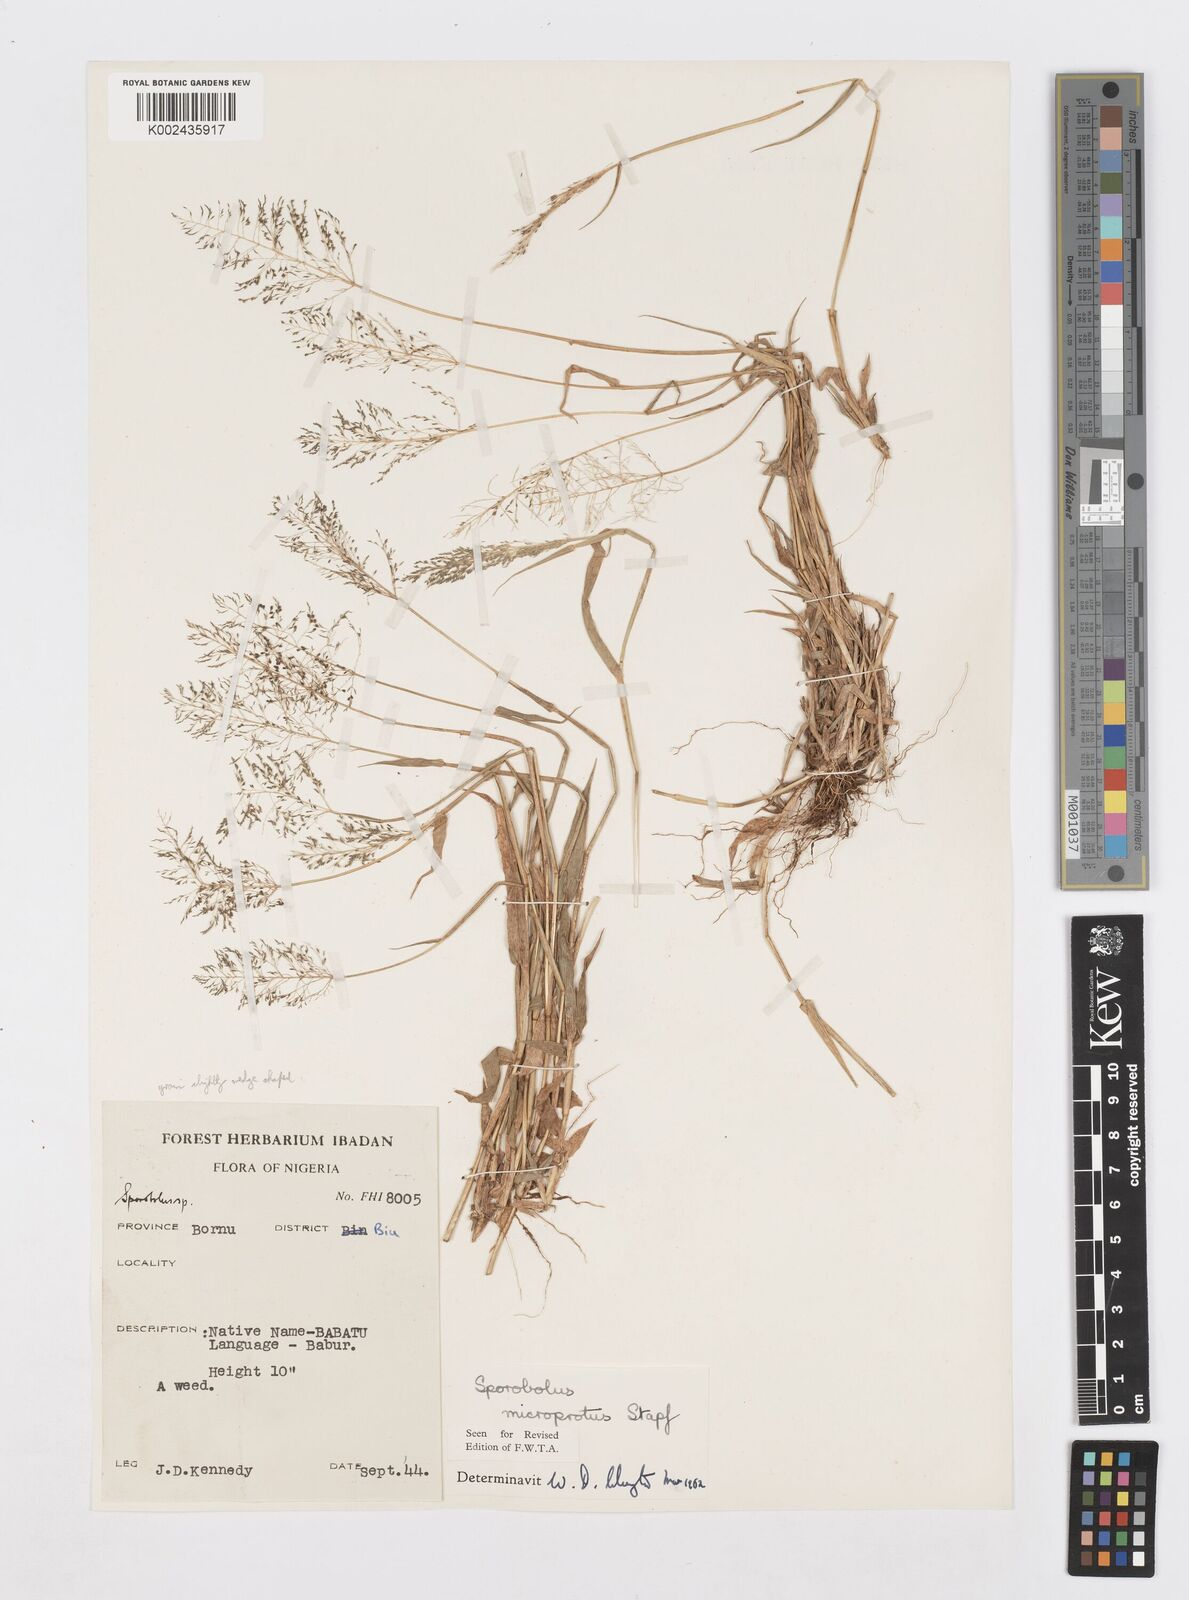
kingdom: Plantae
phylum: Tracheophyta
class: Liliopsida
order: Poales
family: Poaceae
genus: Sporobolus
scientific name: Sporobolus microprotus
